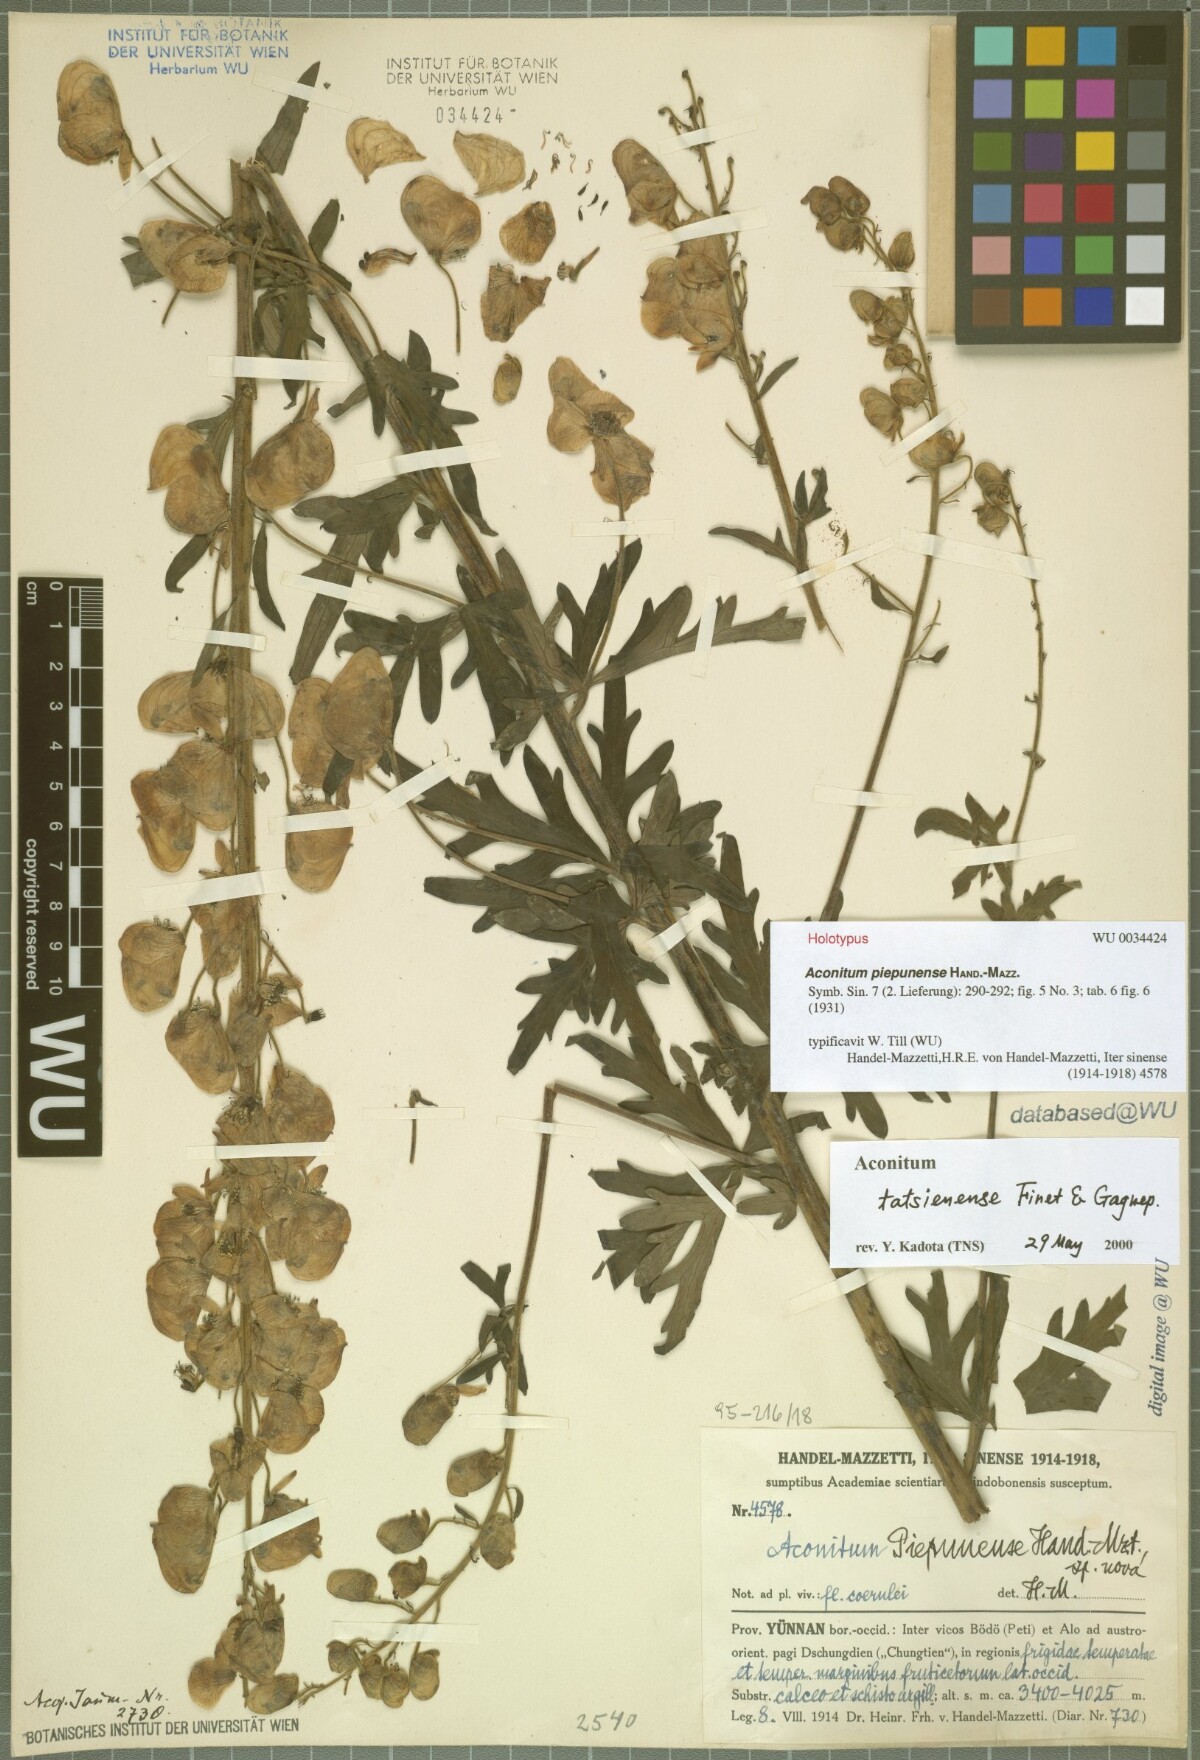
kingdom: Plantae
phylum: Tracheophyta
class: Magnoliopsida
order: Ranunculales
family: Ranunculaceae
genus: Aconitum
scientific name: Aconitum piepunense
